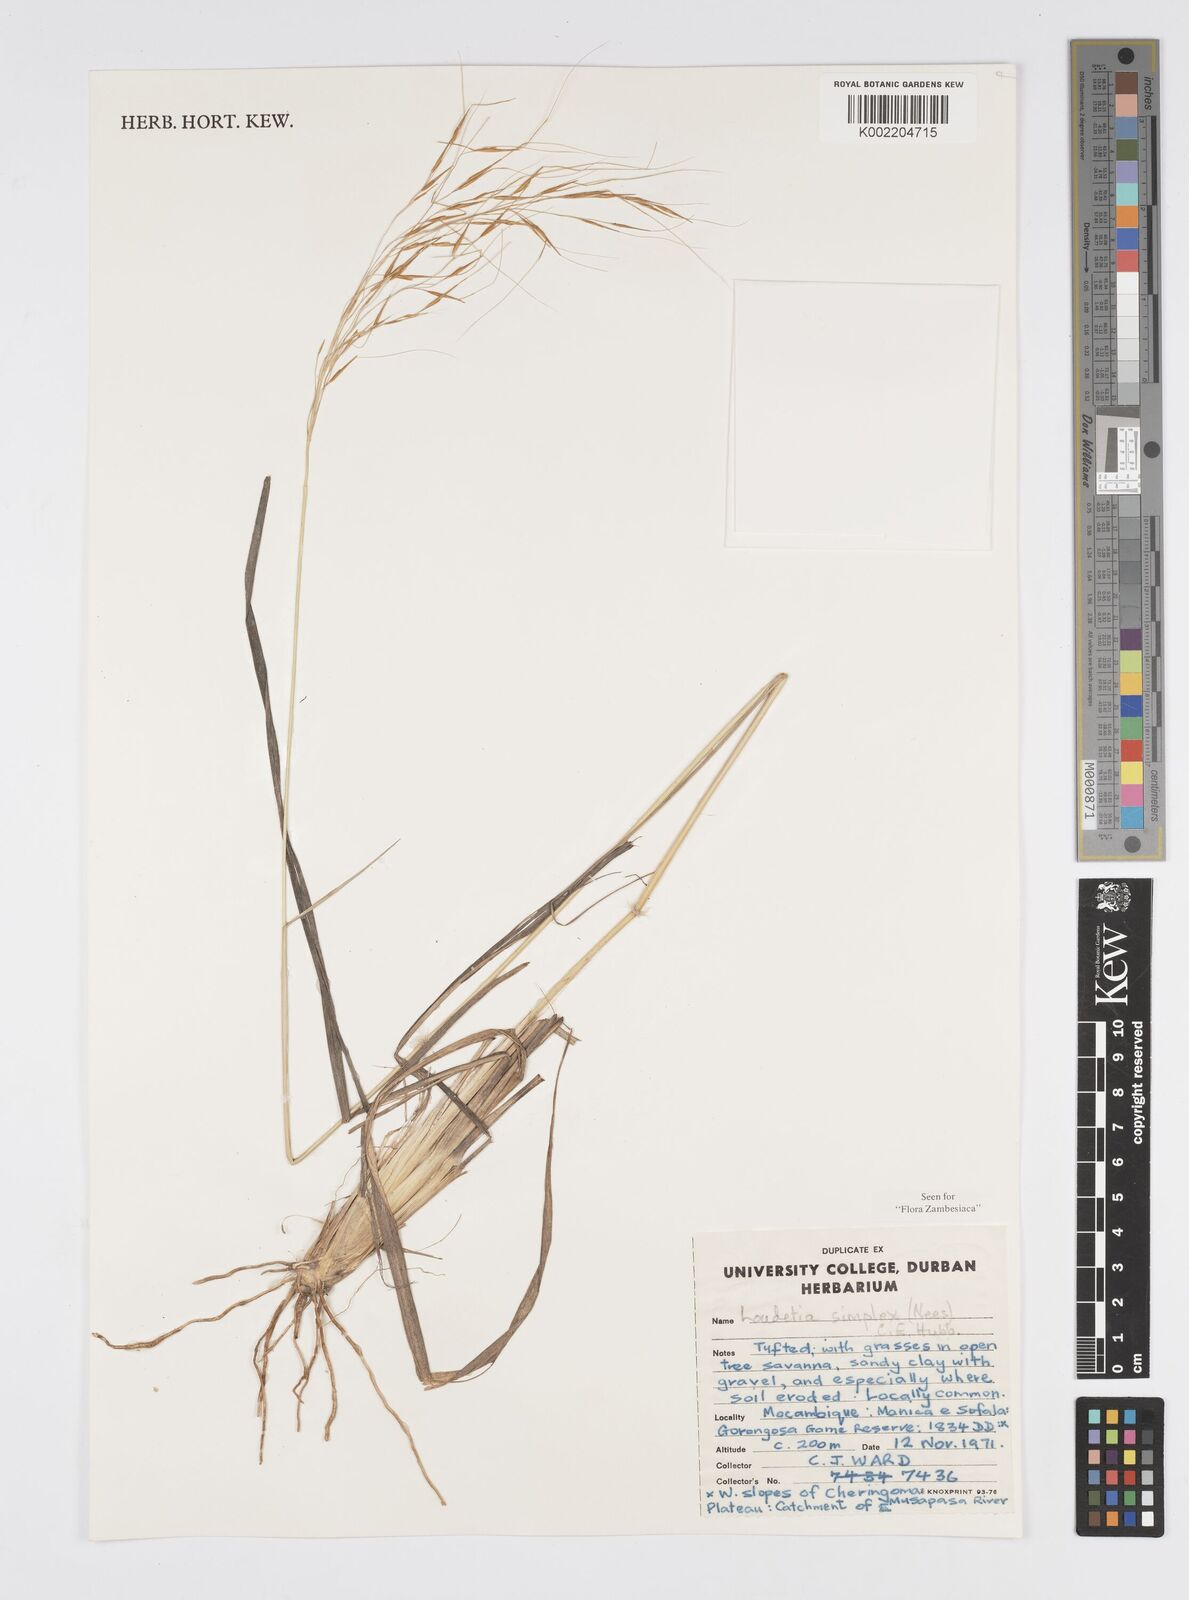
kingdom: Plantae
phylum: Tracheophyta
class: Liliopsida
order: Poales
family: Poaceae
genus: Loudetia
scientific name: Loudetia simplex
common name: Common russet grass
